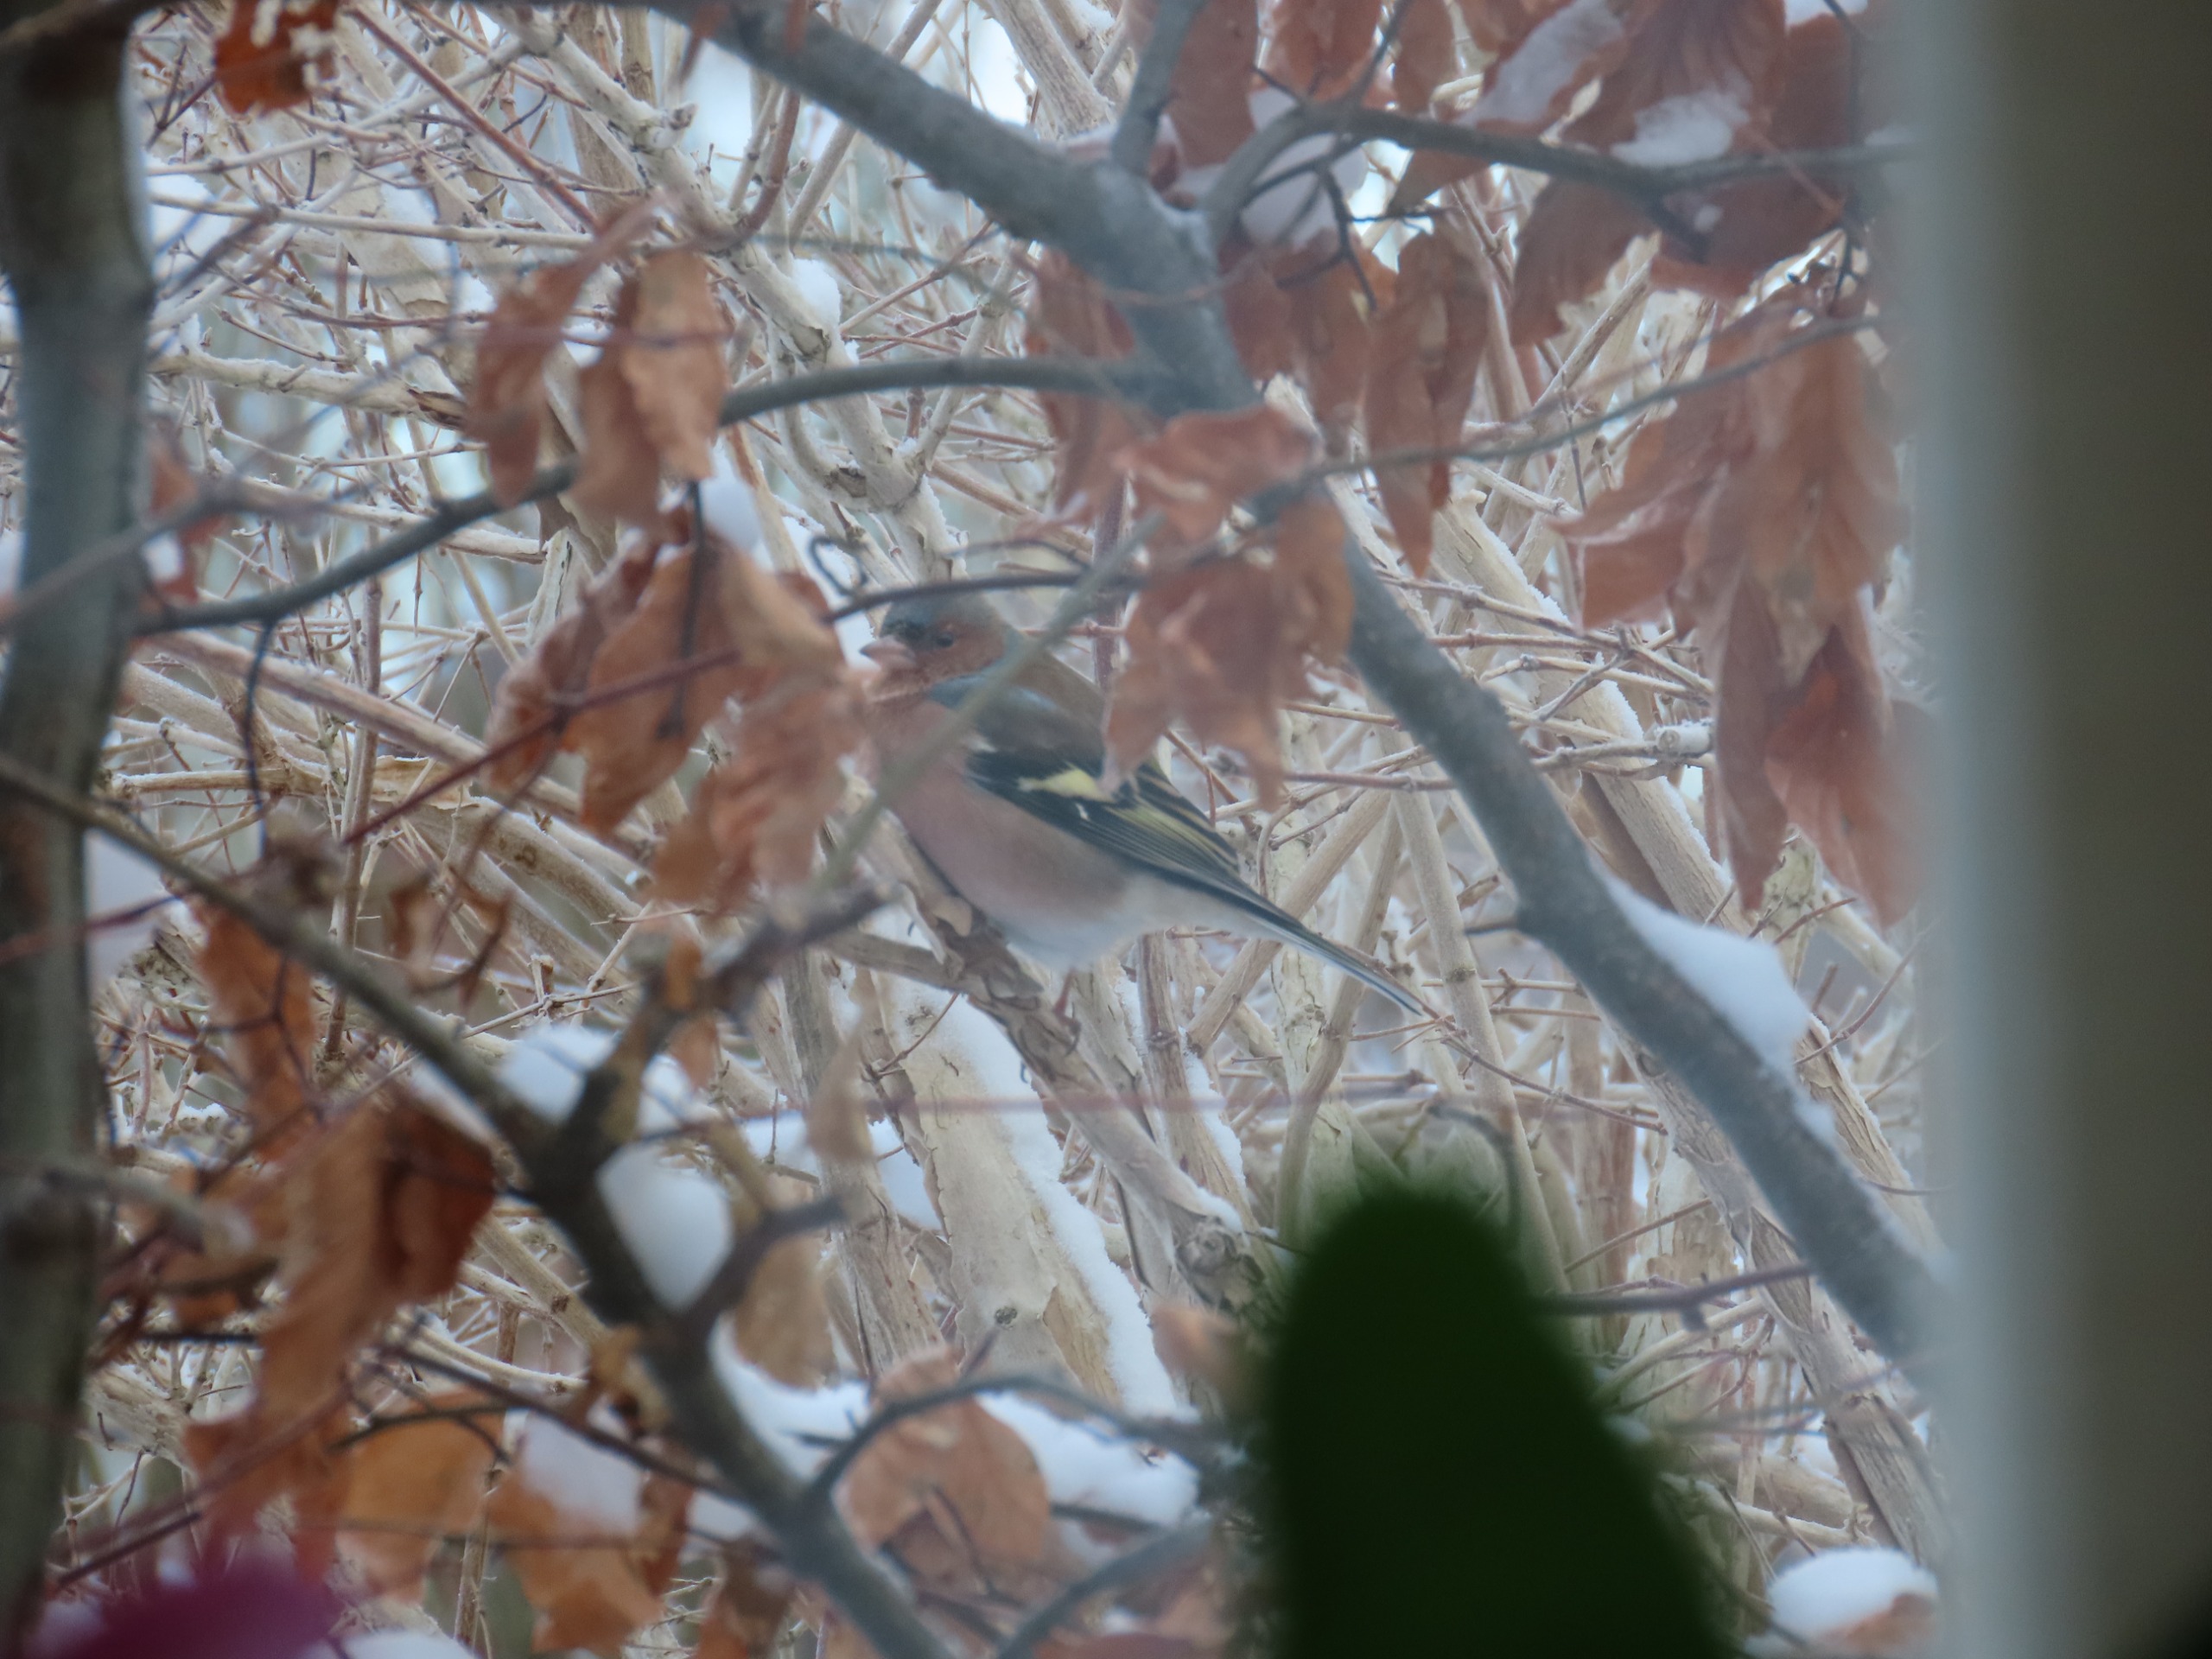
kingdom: Animalia
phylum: Chordata
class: Aves
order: Passeriformes
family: Fringillidae
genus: Fringilla
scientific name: Fringilla coelebs
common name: Bogfinke
